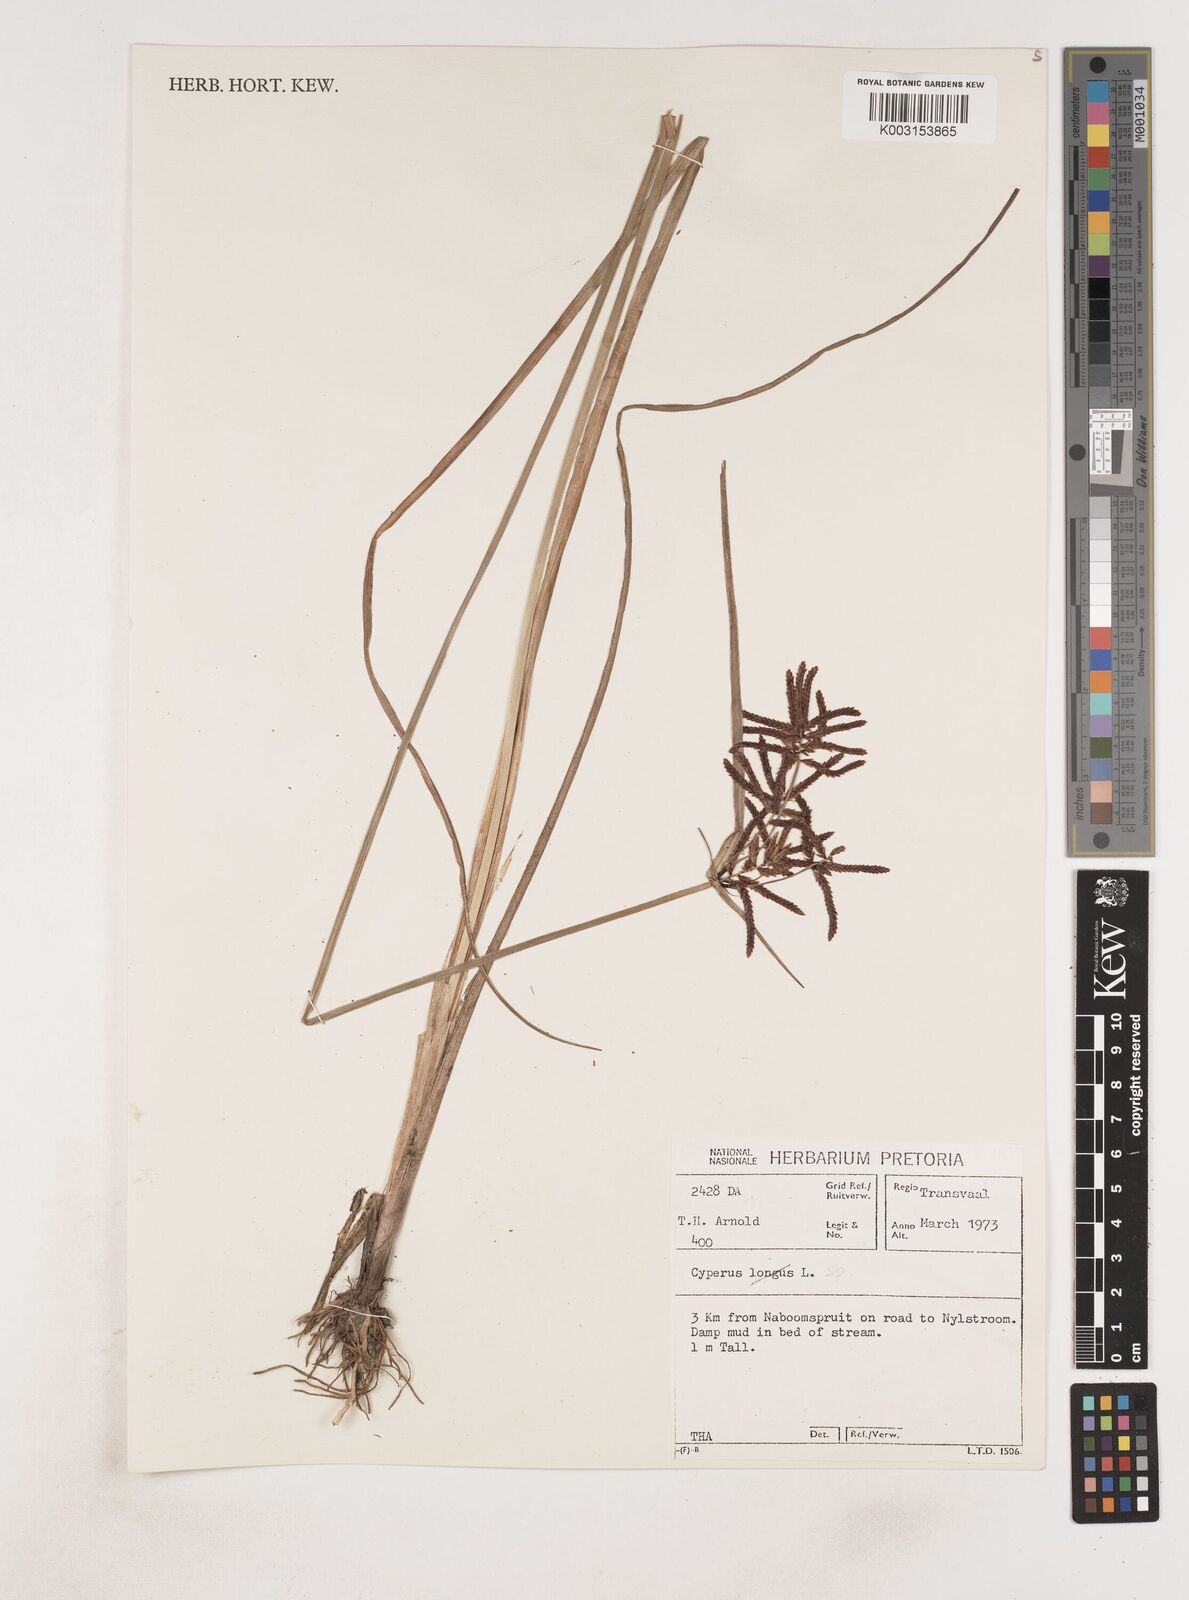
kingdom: Plantae
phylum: Tracheophyta
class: Liliopsida
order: Poales
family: Cyperaceae
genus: Cyperus
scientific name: Cyperus
